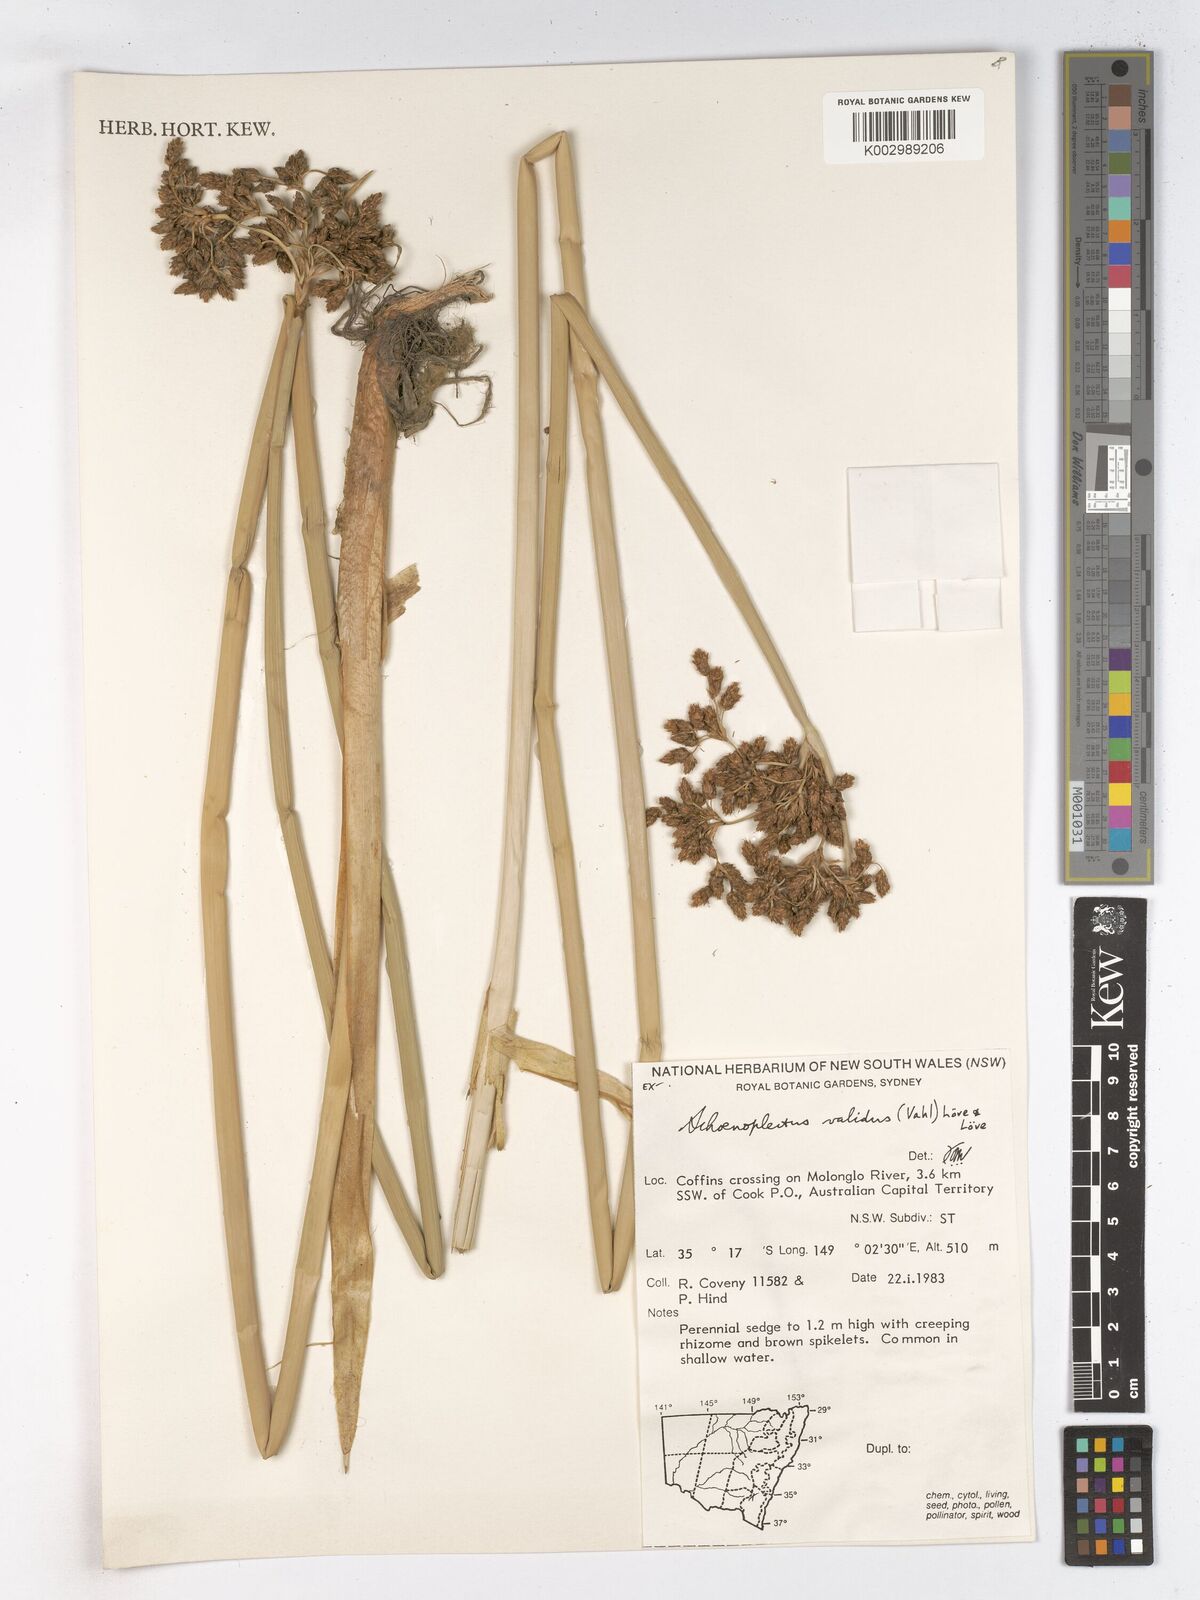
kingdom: Plantae
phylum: Tracheophyta
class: Liliopsida
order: Poales
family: Cyperaceae
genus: Schoenoplectus
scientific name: Schoenoplectus lacustris
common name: Common club-rush
